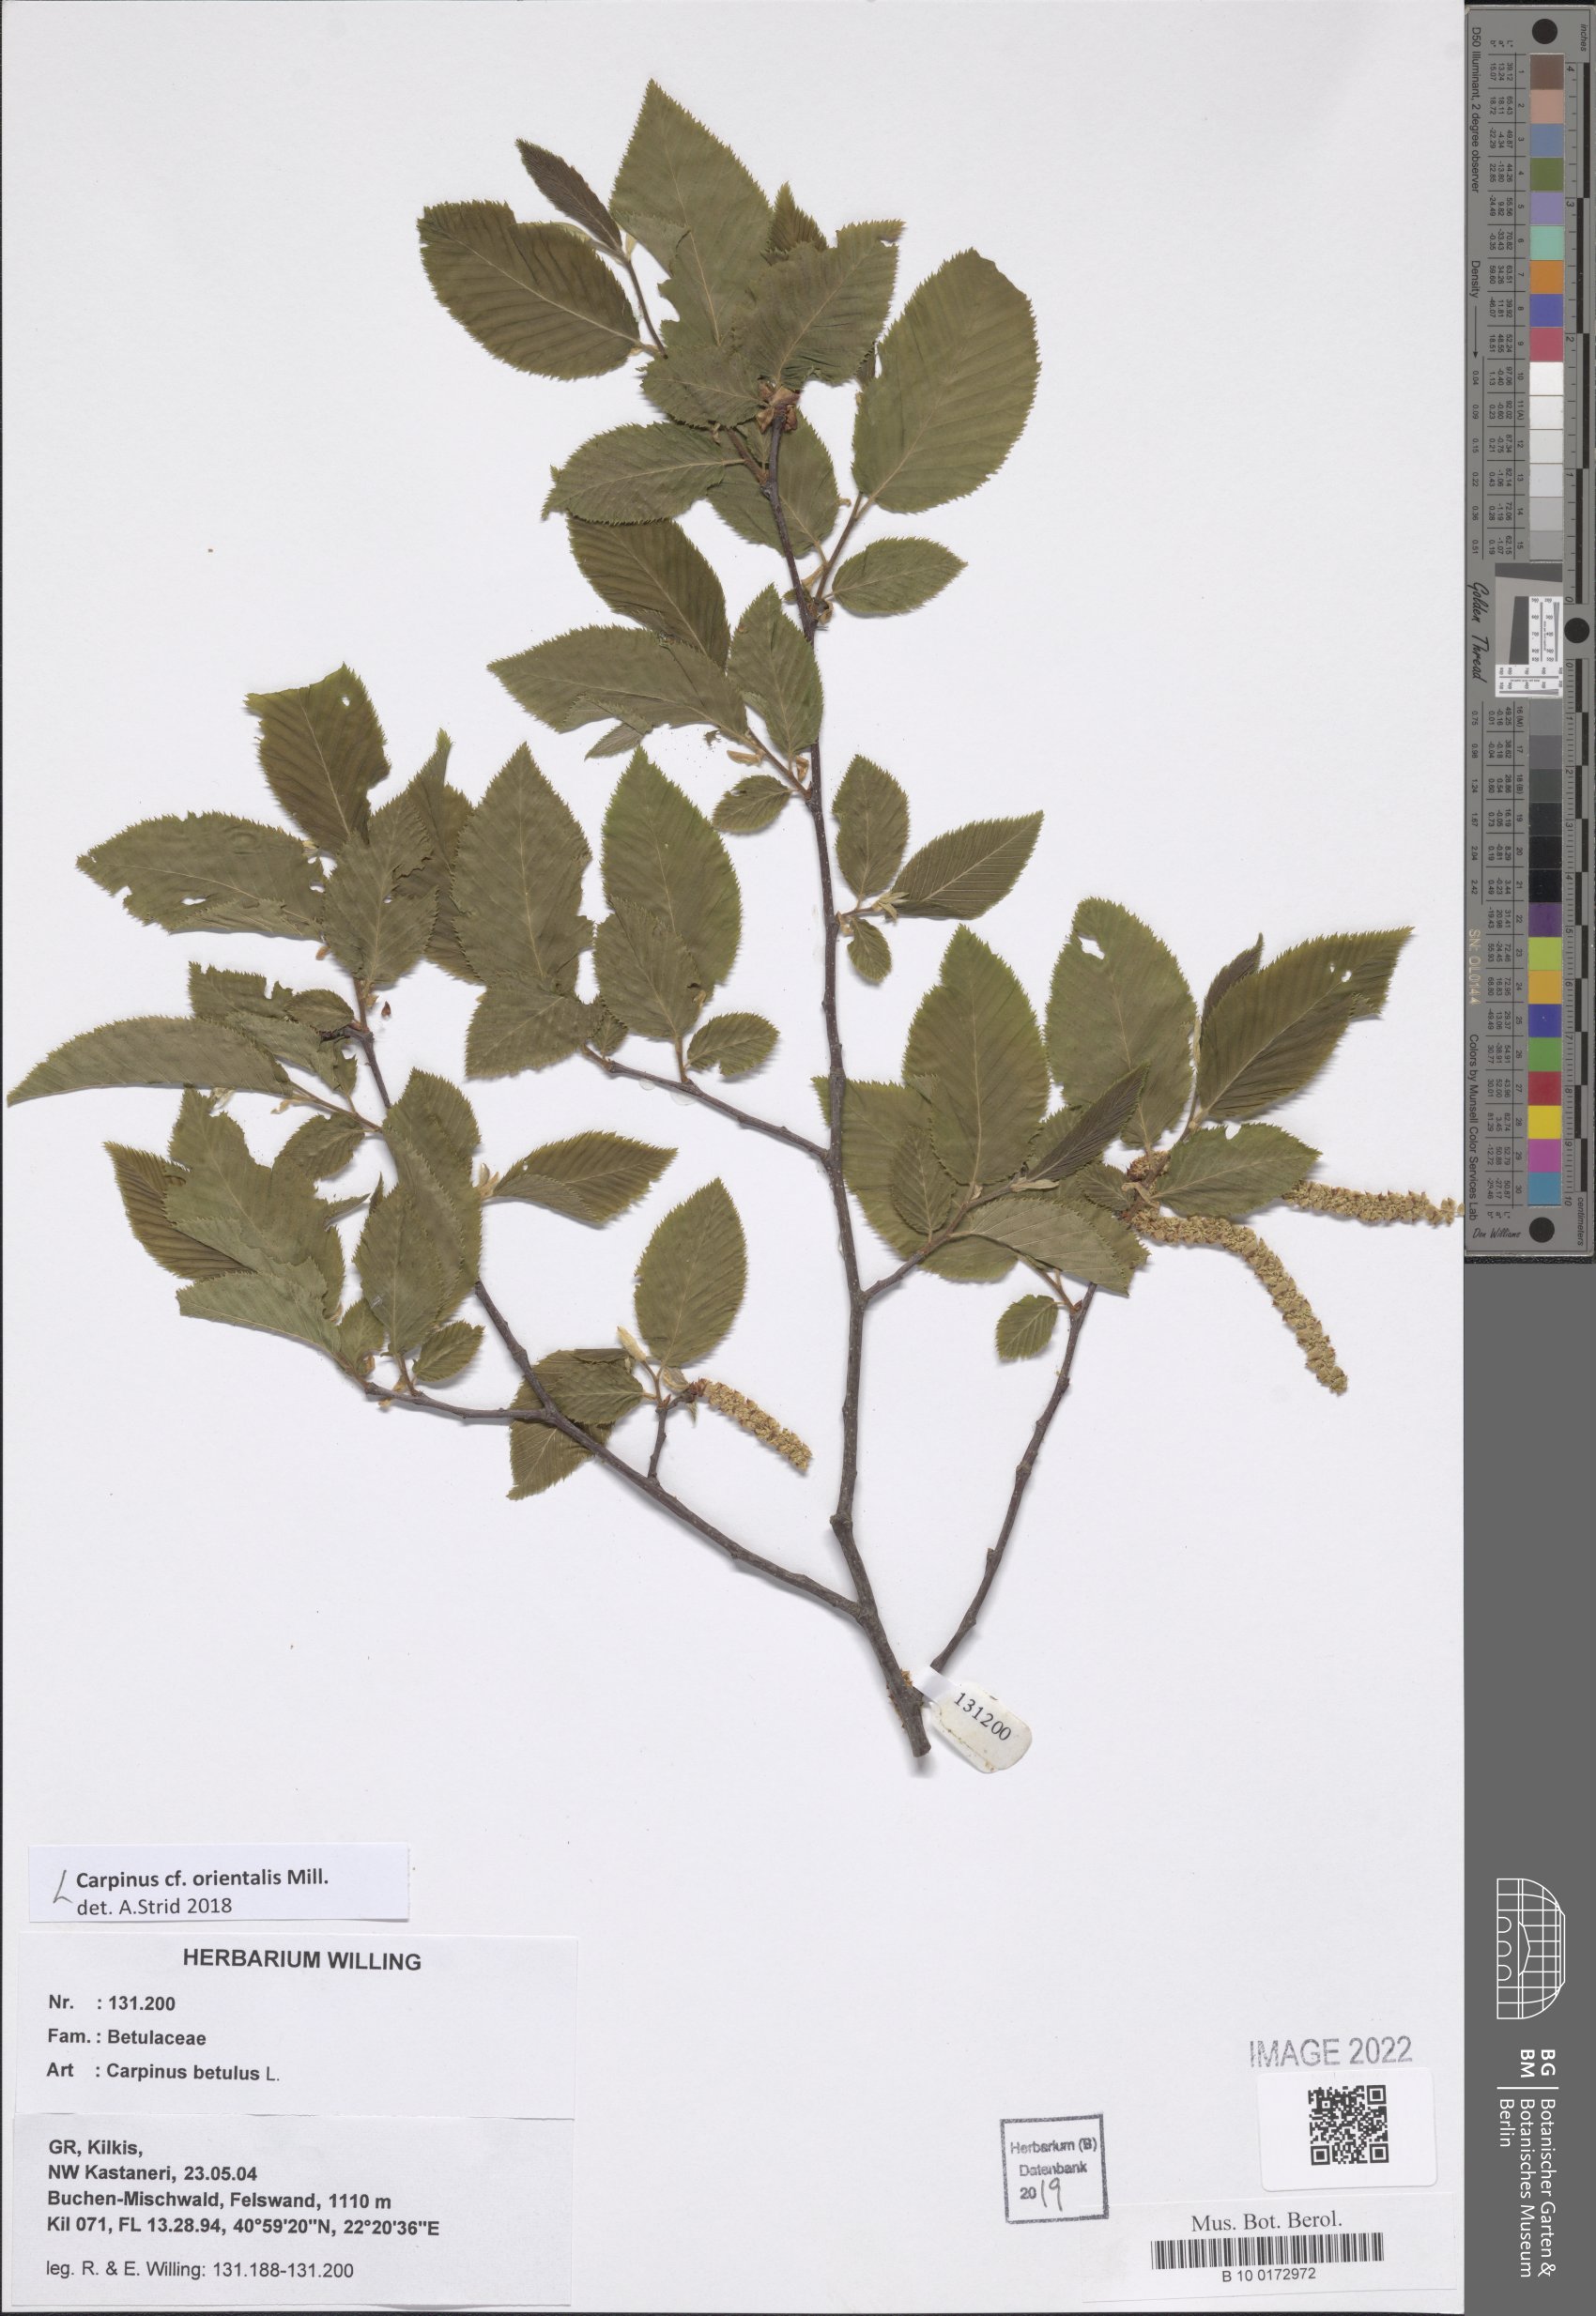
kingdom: Plantae
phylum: Tracheophyta
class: Magnoliopsida
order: Fagales
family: Betulaceae
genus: Carpinus
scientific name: Carpinus orientalis
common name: Eastern hornbeam
